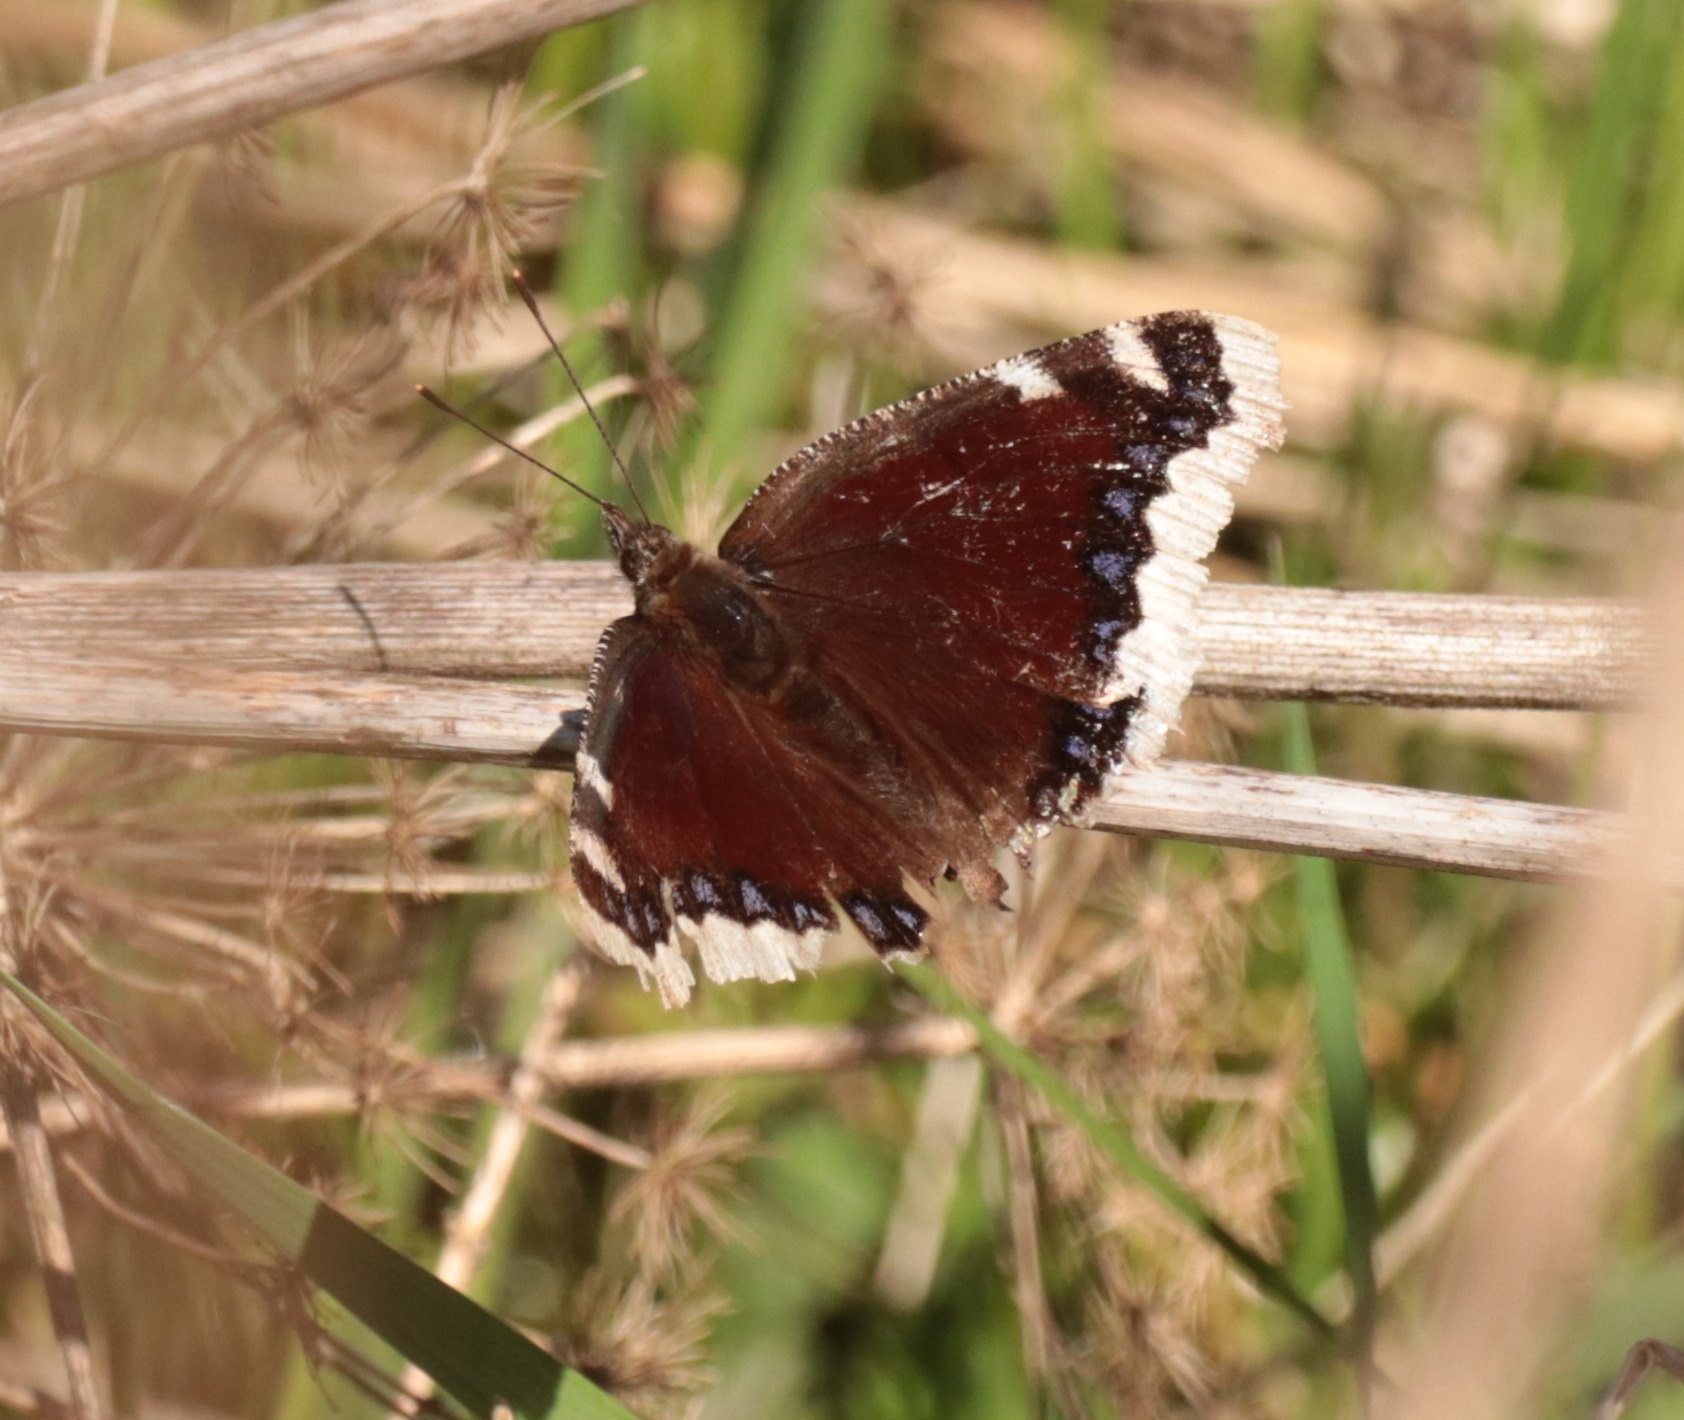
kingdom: Animalia
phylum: Arthropoda
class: Insecta
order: Lepidoptera
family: Nymphalidae
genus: Nymphalis
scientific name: Nymphalis antiopa
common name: Sørgekåbe
